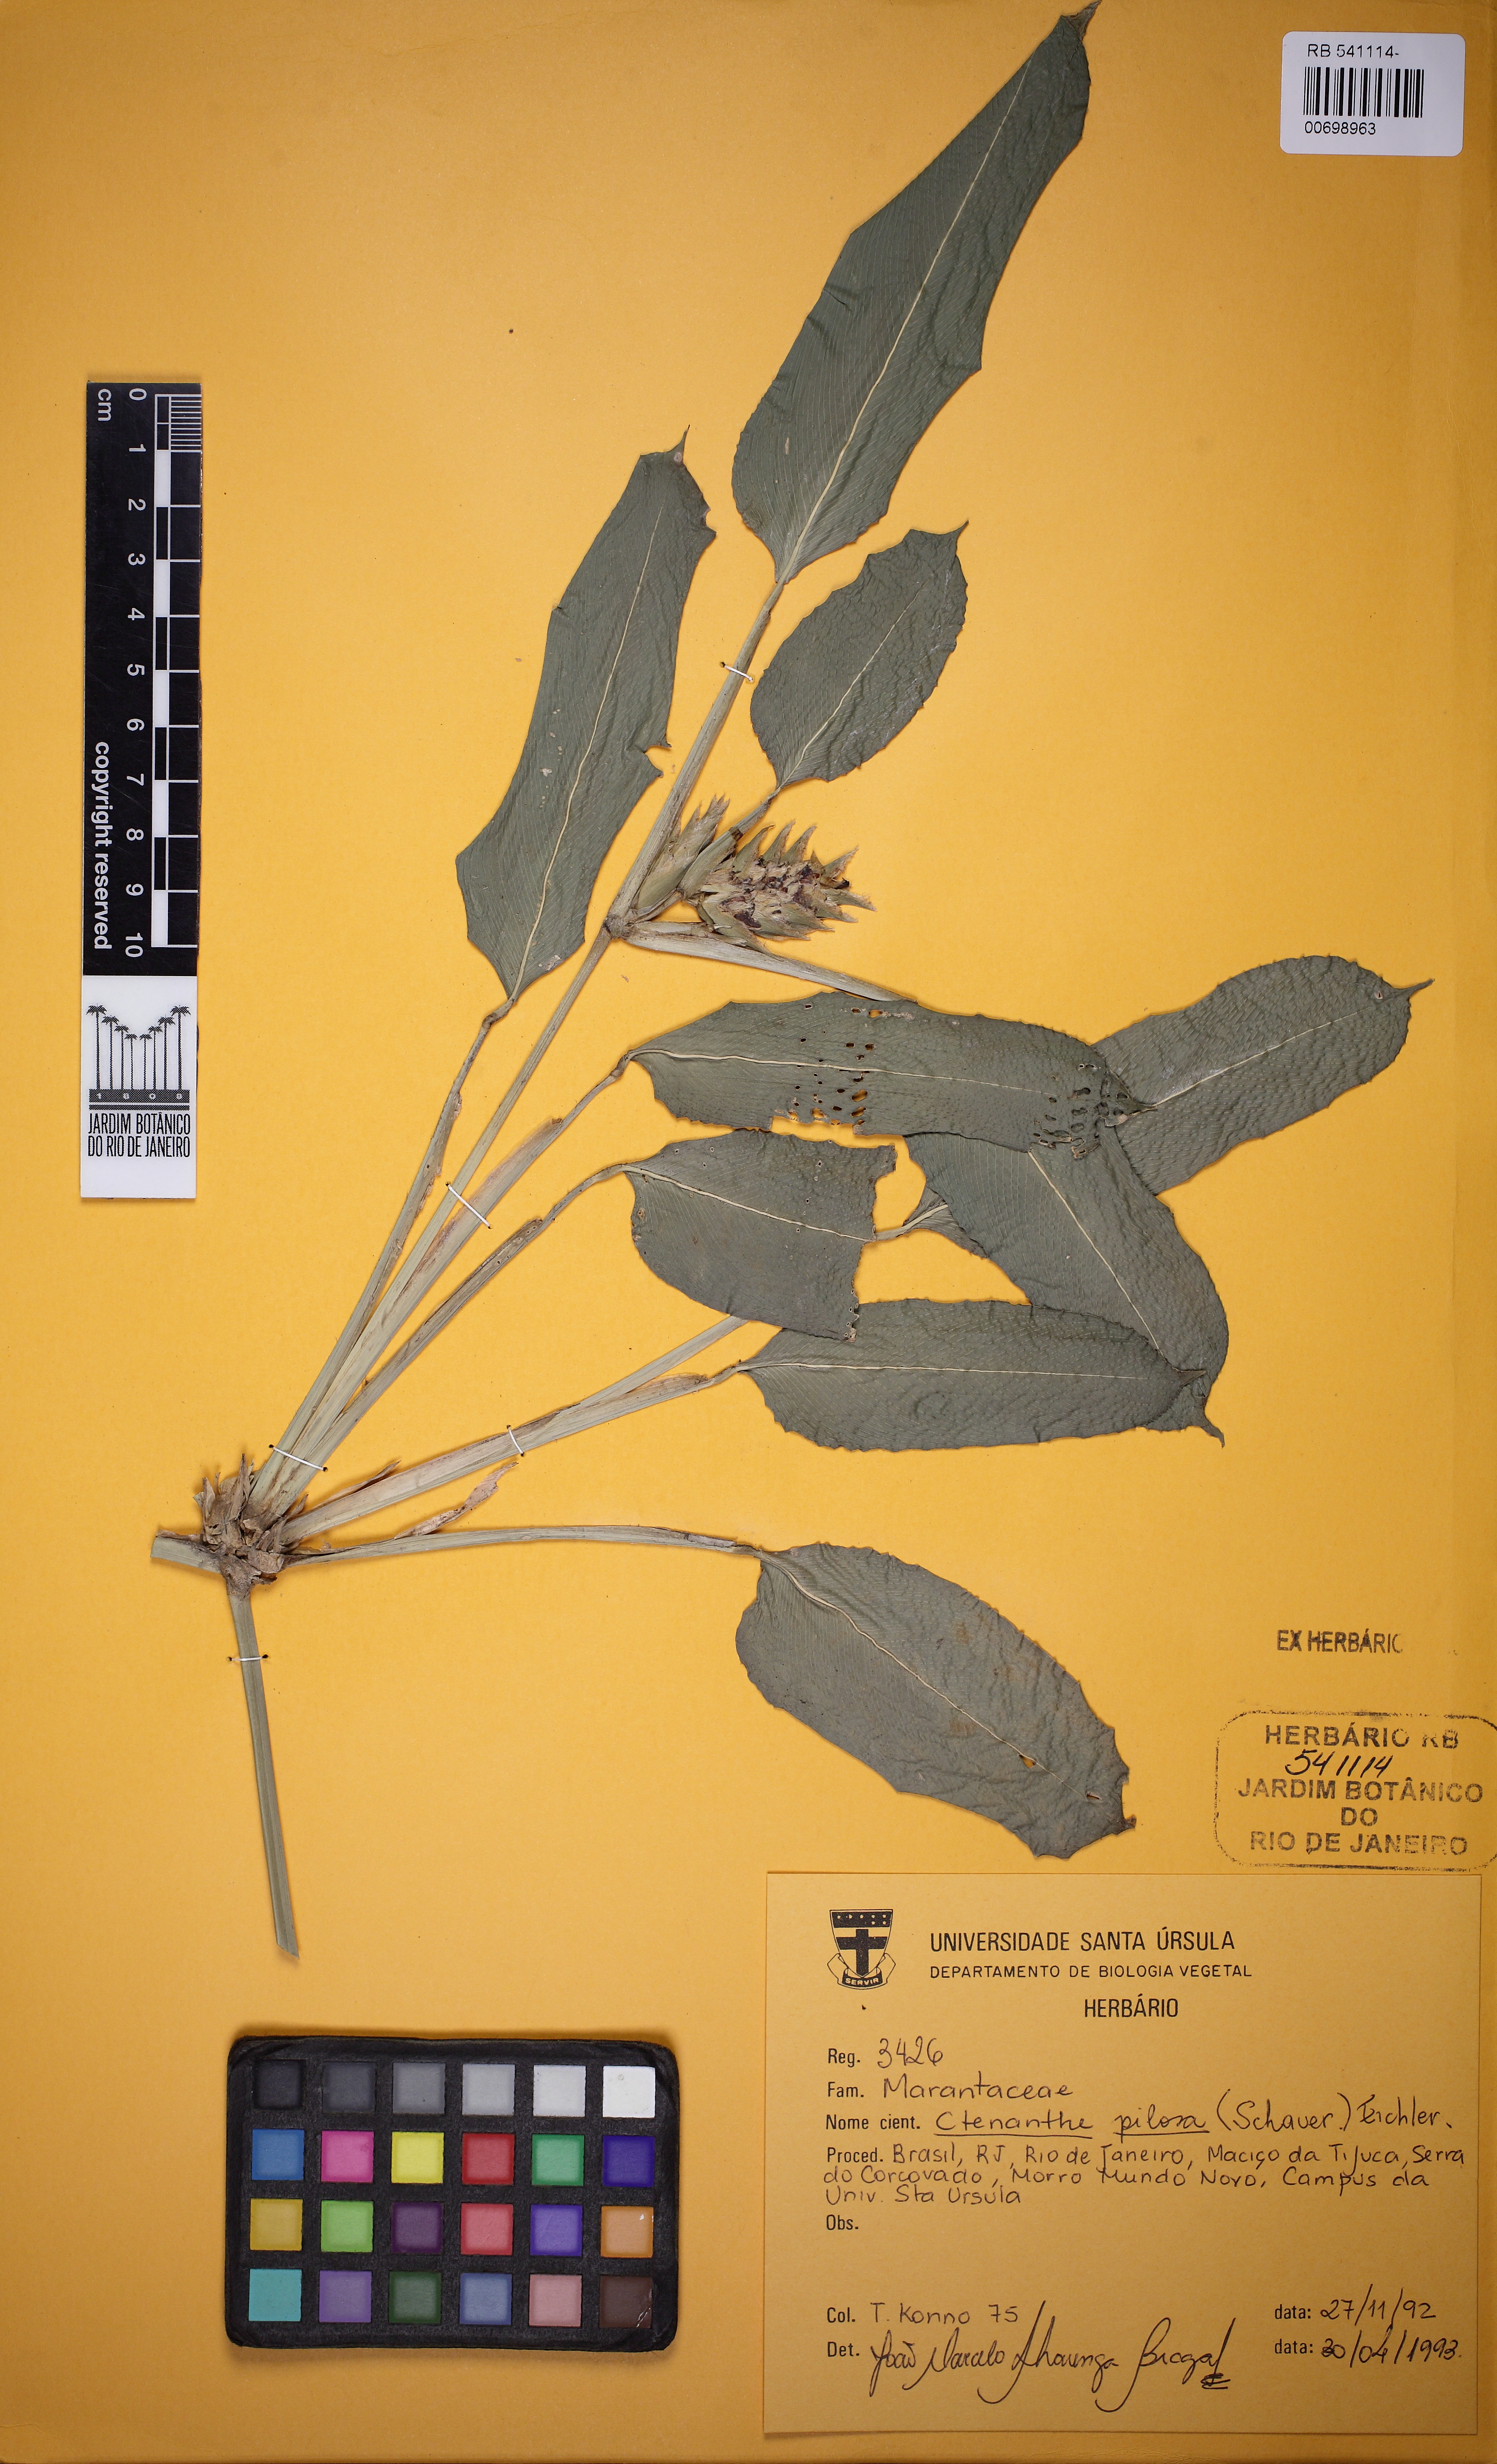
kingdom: Plantae
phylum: Tracheophyta
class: Liliopsida
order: Zingiberales
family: Marantaceae
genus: Ctenanthe
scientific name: Ctenanthe marantifolia
